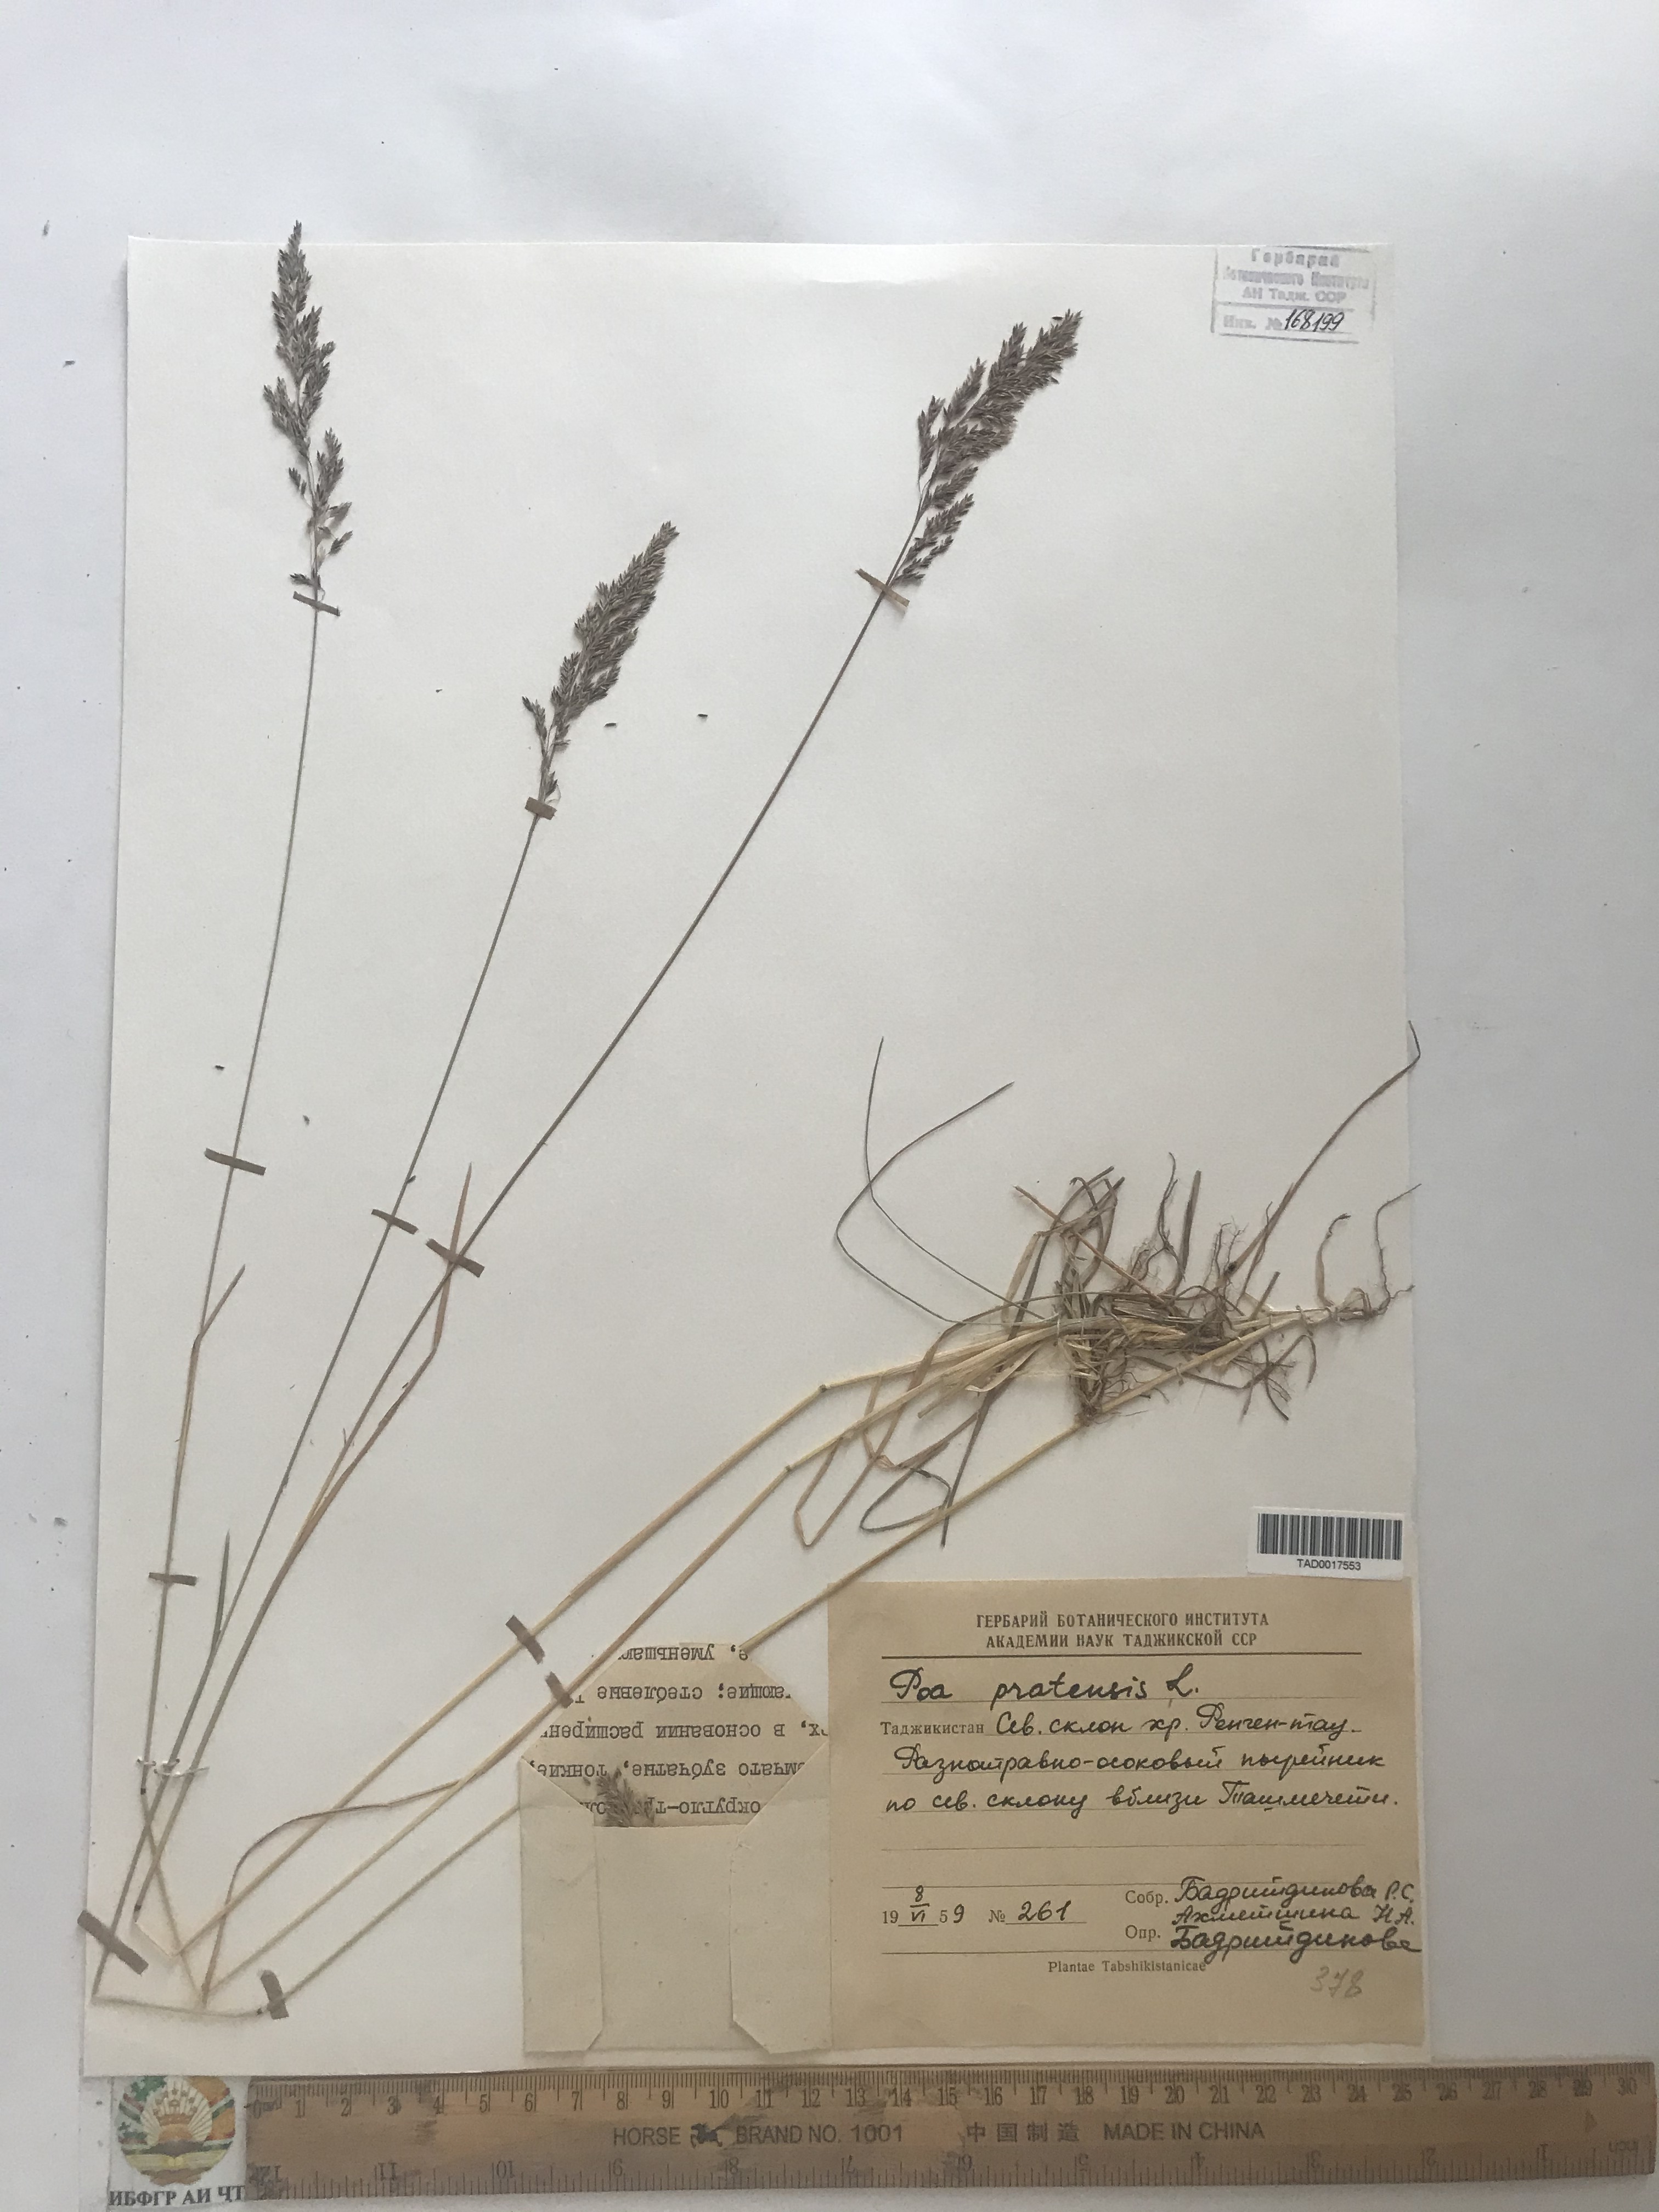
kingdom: Plantae
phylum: Tracheophyta
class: Liliopsida
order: Poales
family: Poaceae
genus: Poa
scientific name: Poa pratensis
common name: Kentucky bluegrass
